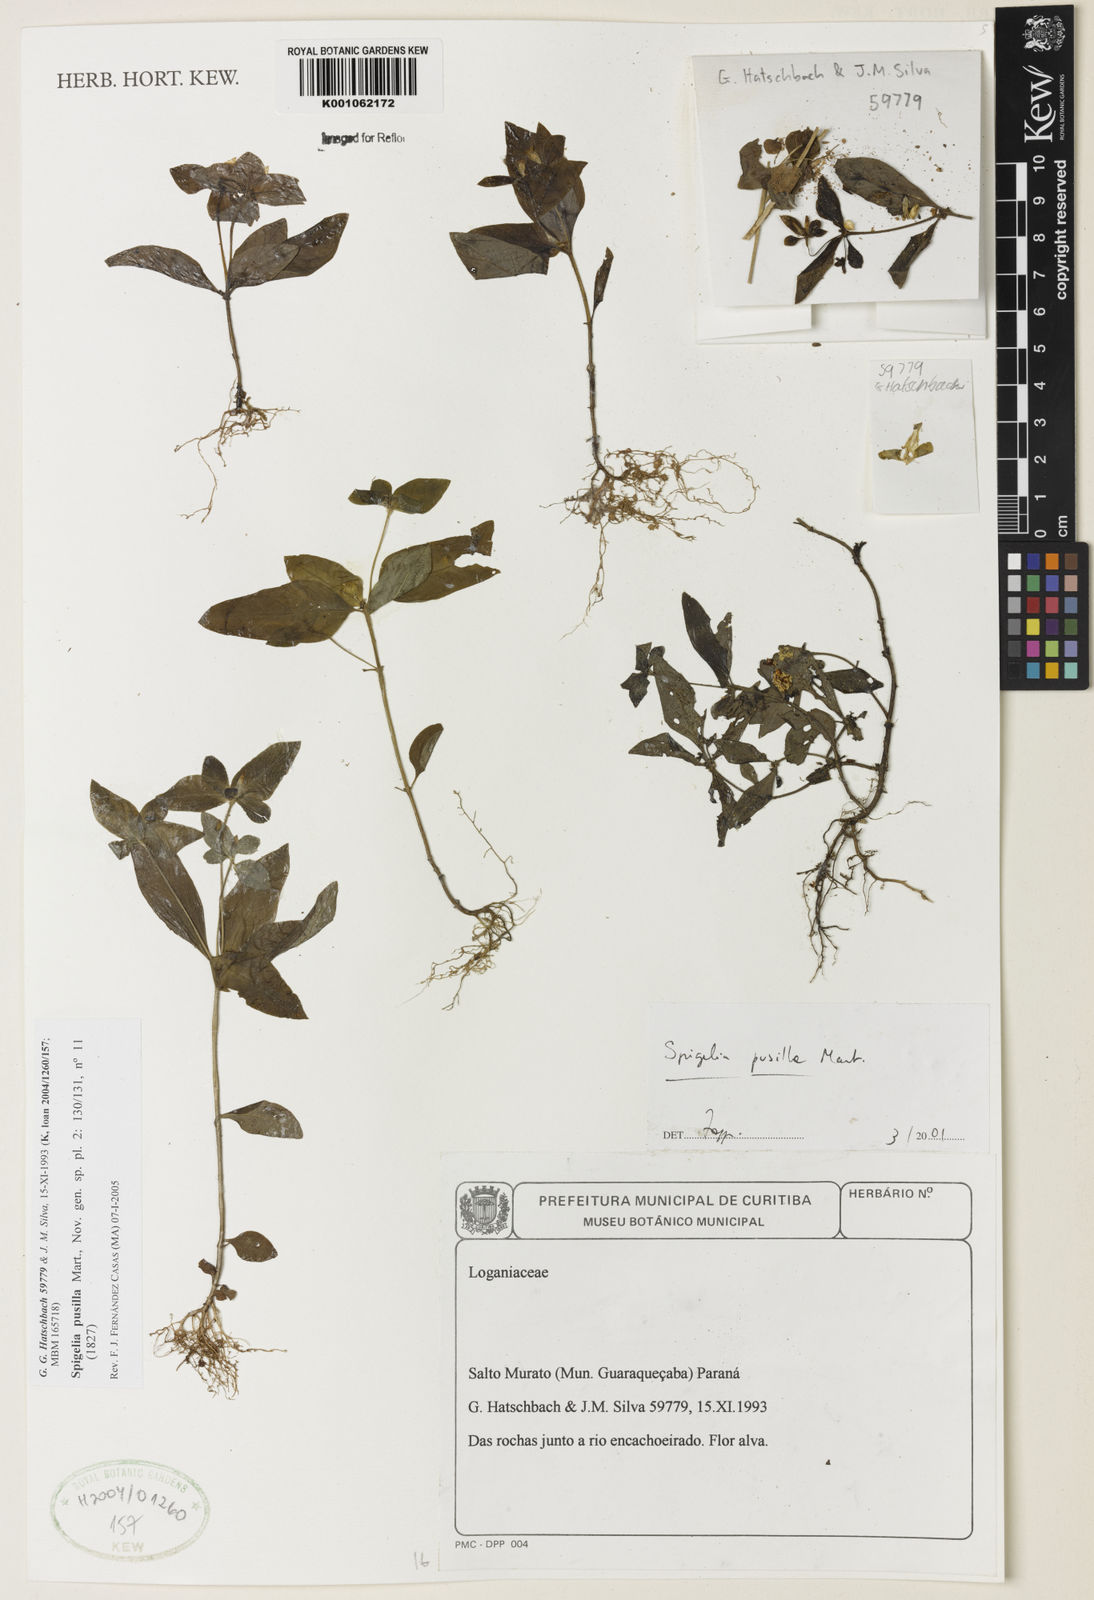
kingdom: Plantae
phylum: Tracheophyta
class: Magnoliopsida
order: Gentianales
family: Loganiaceae
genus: Spigelia
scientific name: Spigelia pusilla
